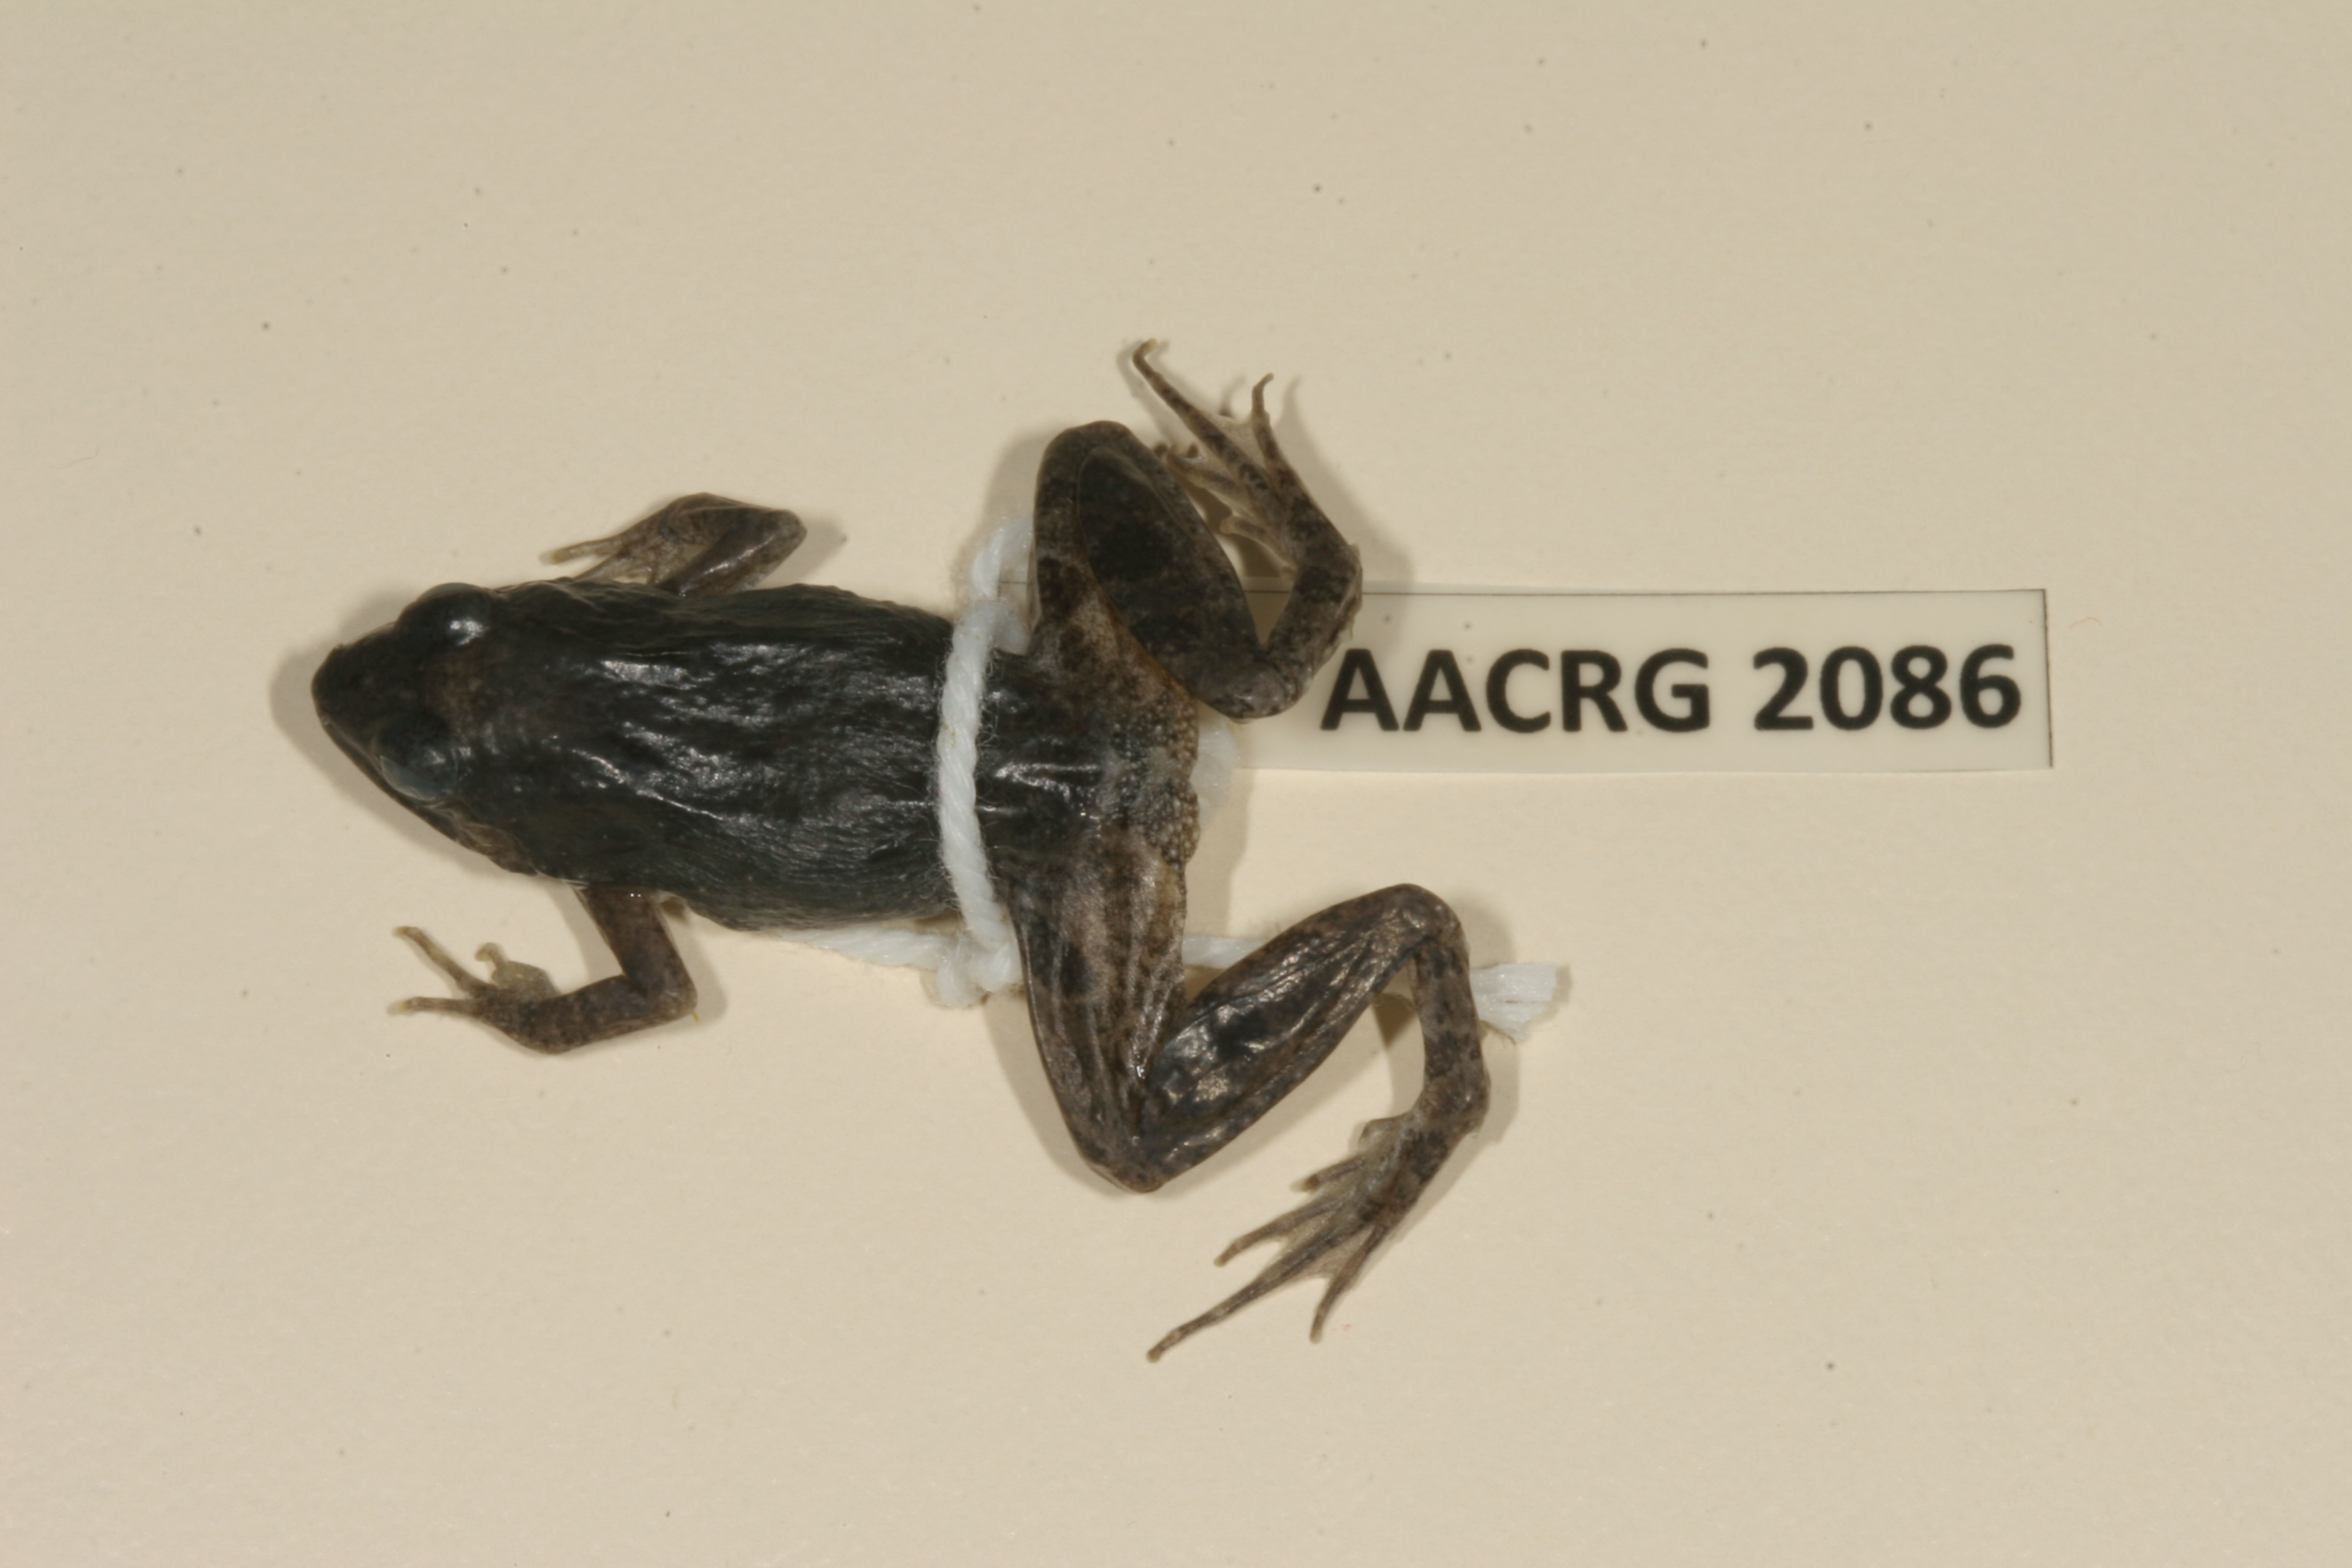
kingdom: Animalia
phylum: Chordata
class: Amphibia
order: Anura
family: Phrynobatrachidae
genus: Phrynobatrachus
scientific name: Phrynobatrachus natalensis
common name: Snoring puddle frog
